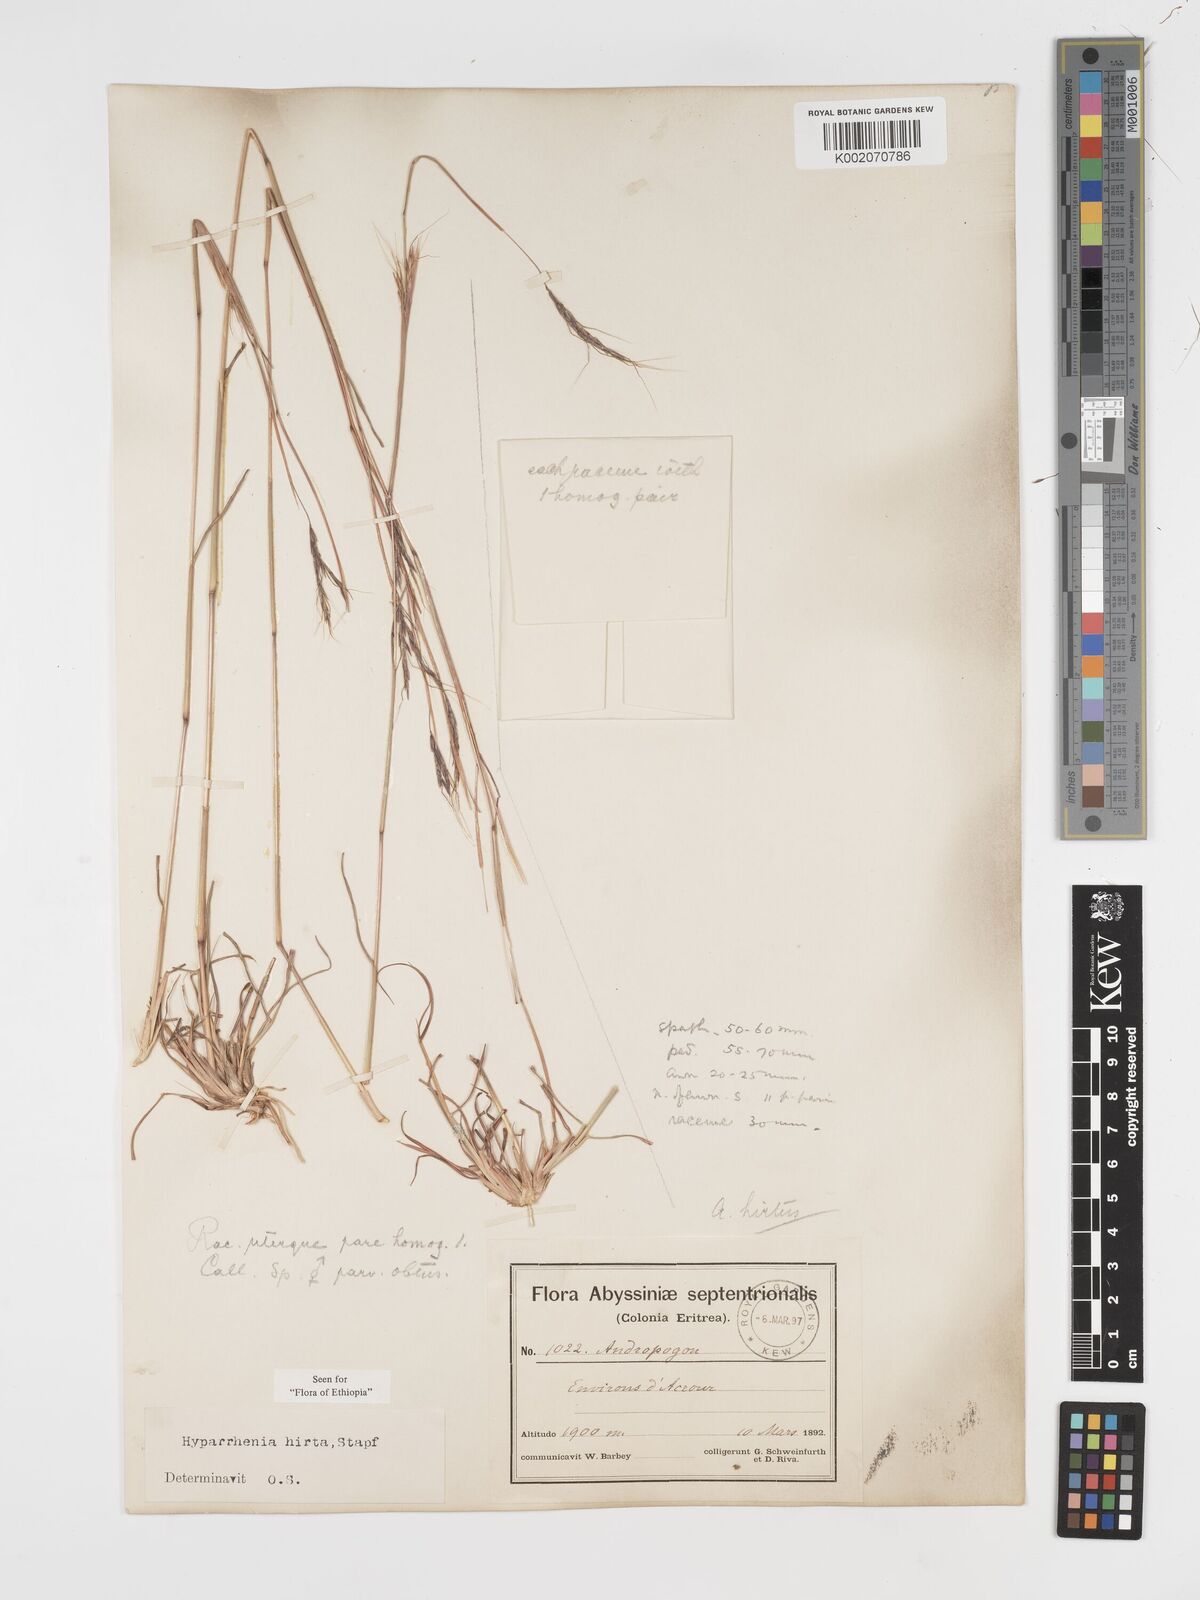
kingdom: Plantae
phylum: Tracheophyta
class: Liliopsida
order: Poales
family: Poaceae
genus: Hyparrhenia
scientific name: Hyparrhenia hirta
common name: Thatching grass
